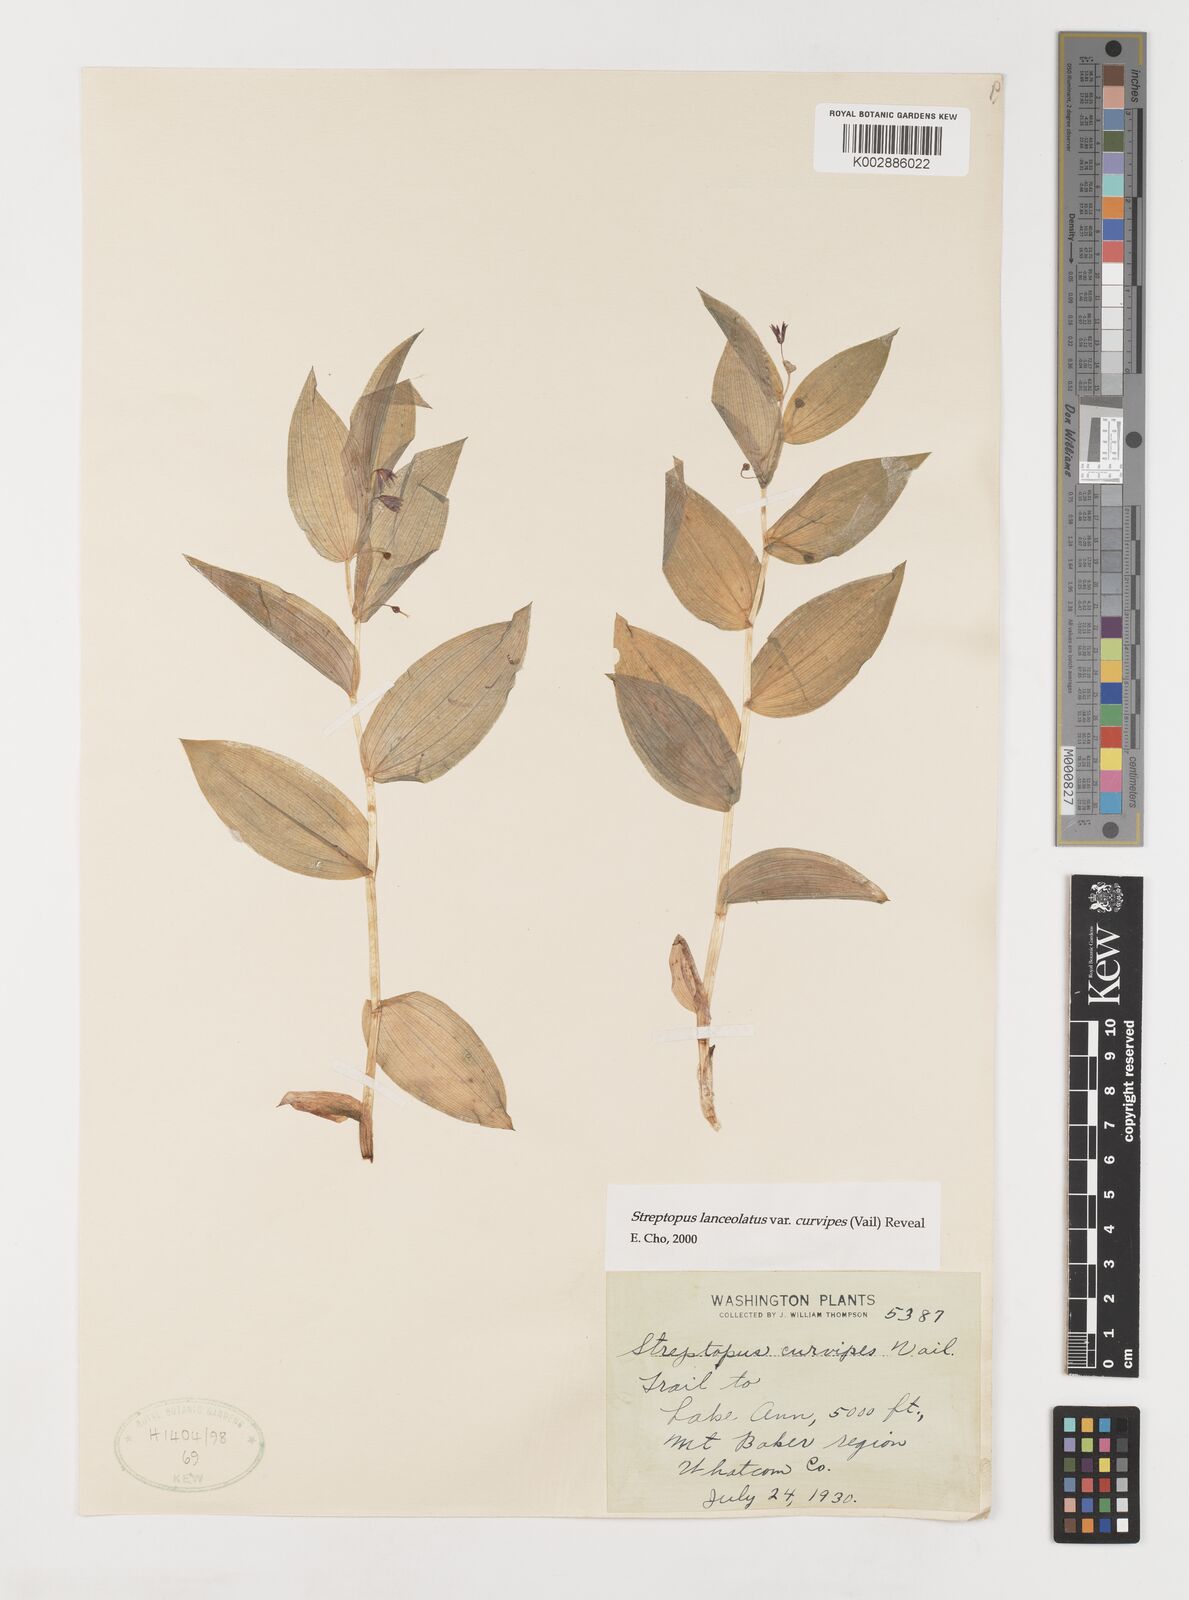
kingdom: Plantae
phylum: Tracheophyta
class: Liliopsida
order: Liliales
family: Liliaceae
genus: Streptopus
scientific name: Streptopus lanceolatus
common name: Rose mandarin
